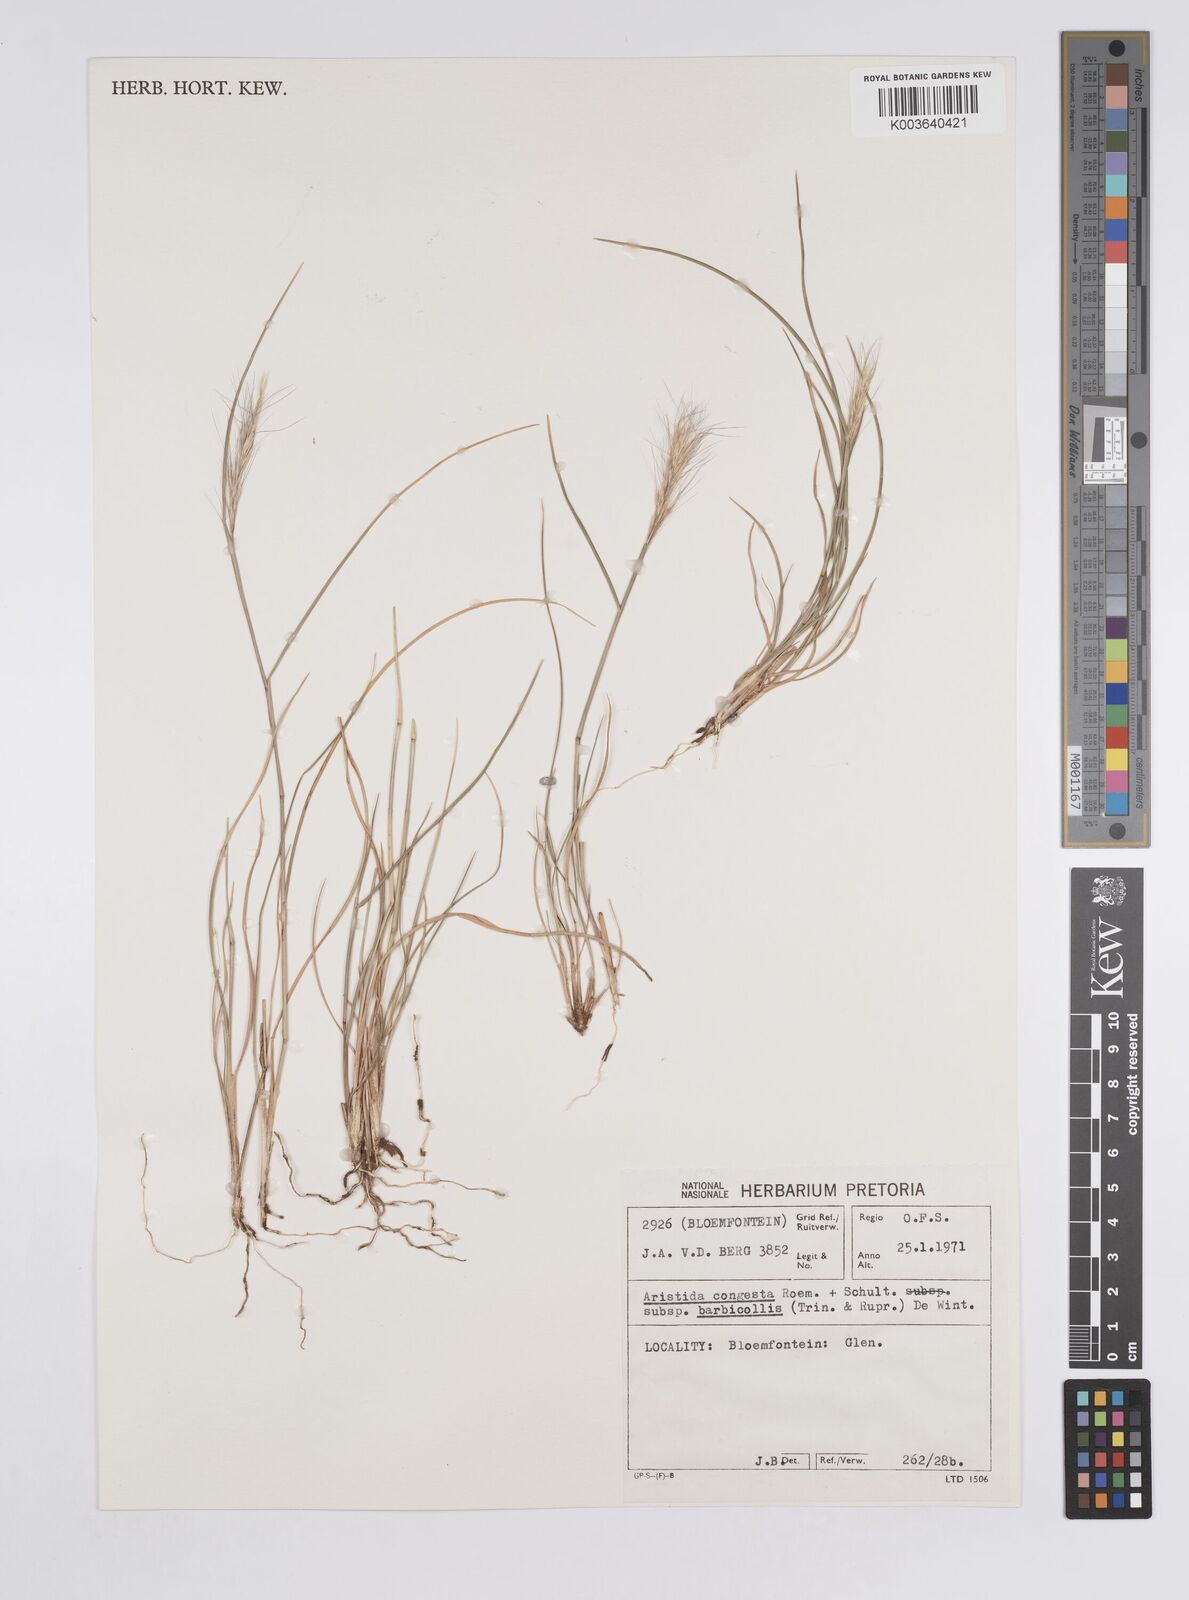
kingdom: Plantae
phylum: Tracheophyta
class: Liliopsida
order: Poales
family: Poaceae
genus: Aristida
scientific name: Aristida barbicollis
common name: Spreading prickle grass
